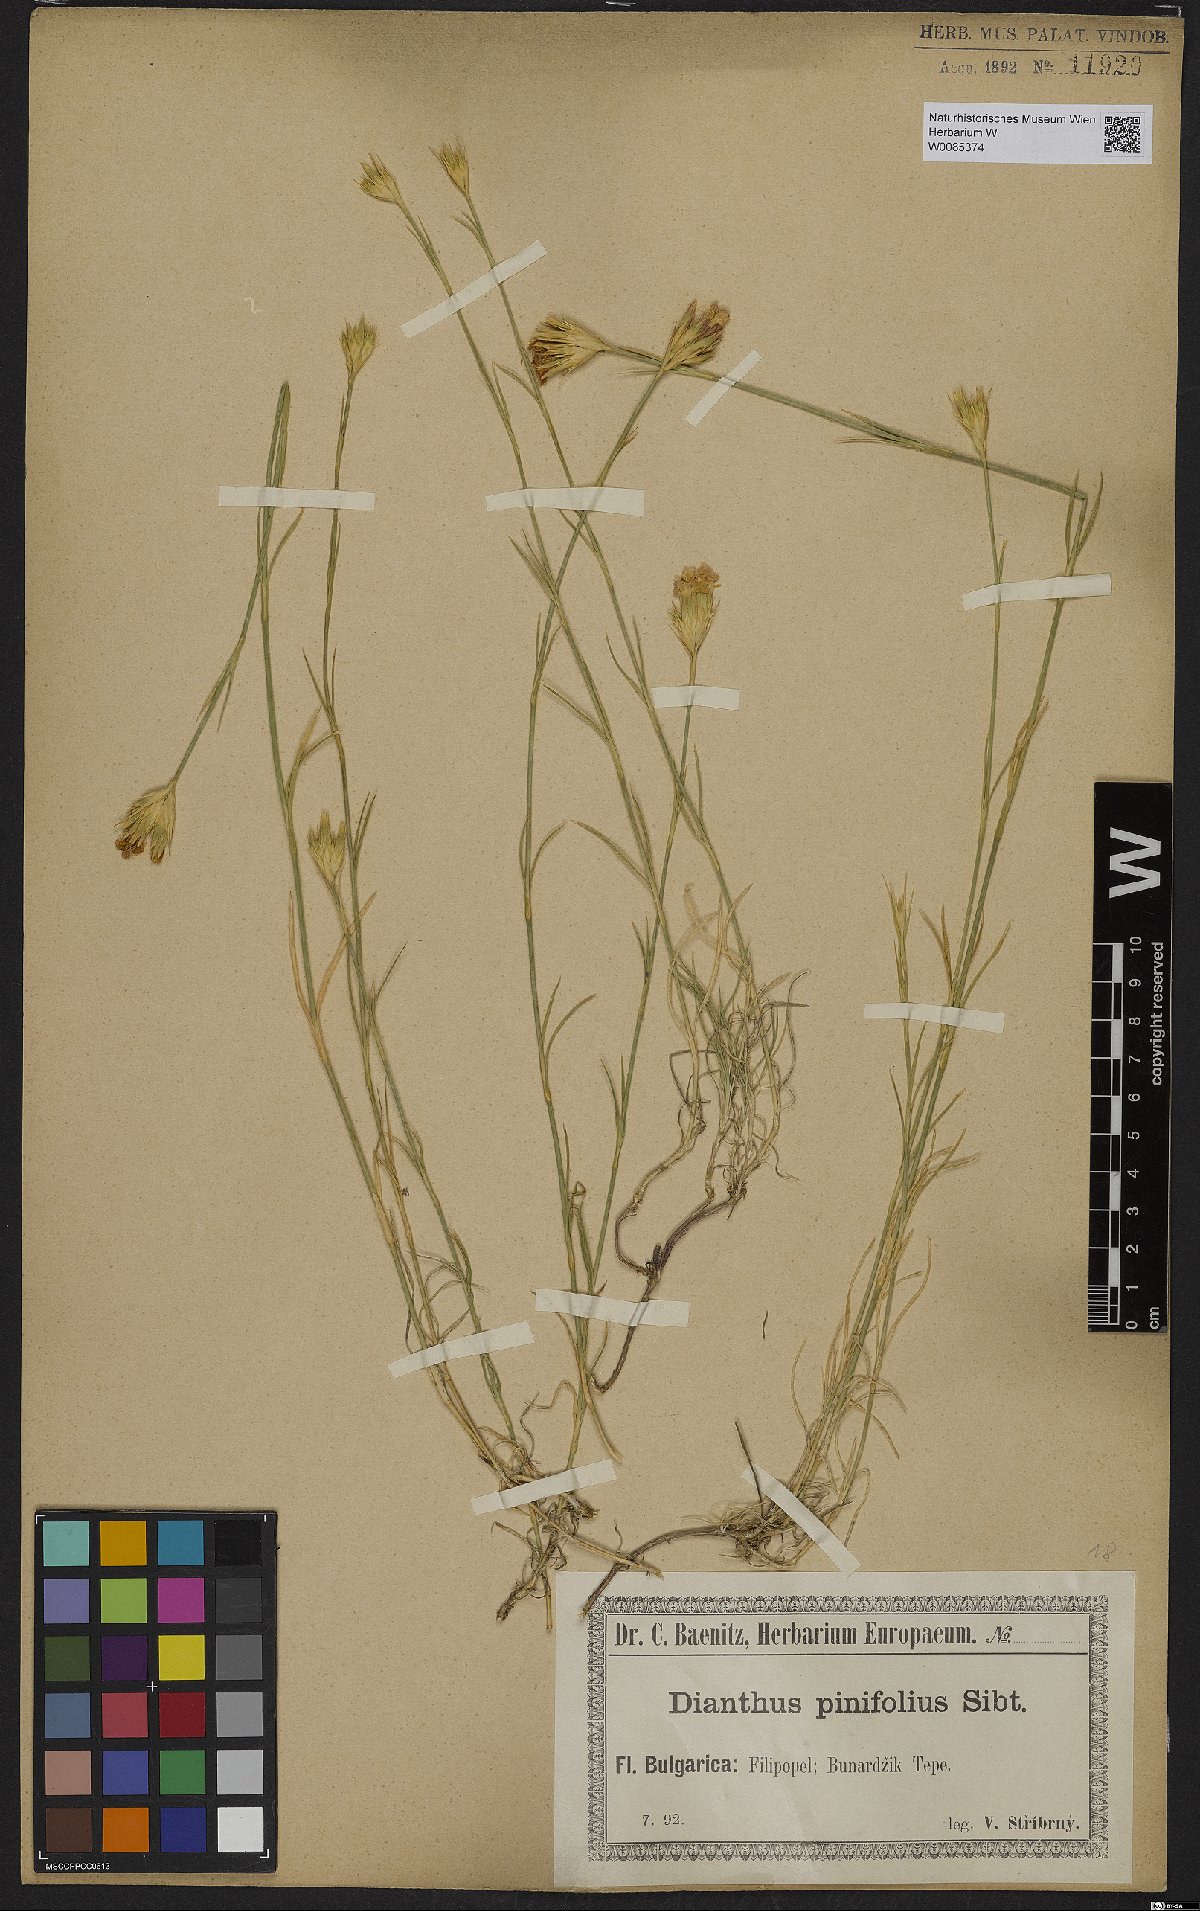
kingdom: Plantae
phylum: Tracheophyta
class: Magnoliopsida
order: Caryophyllales
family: Caryophyllaceae
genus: Dianthus
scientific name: Dianthus pinifolius
